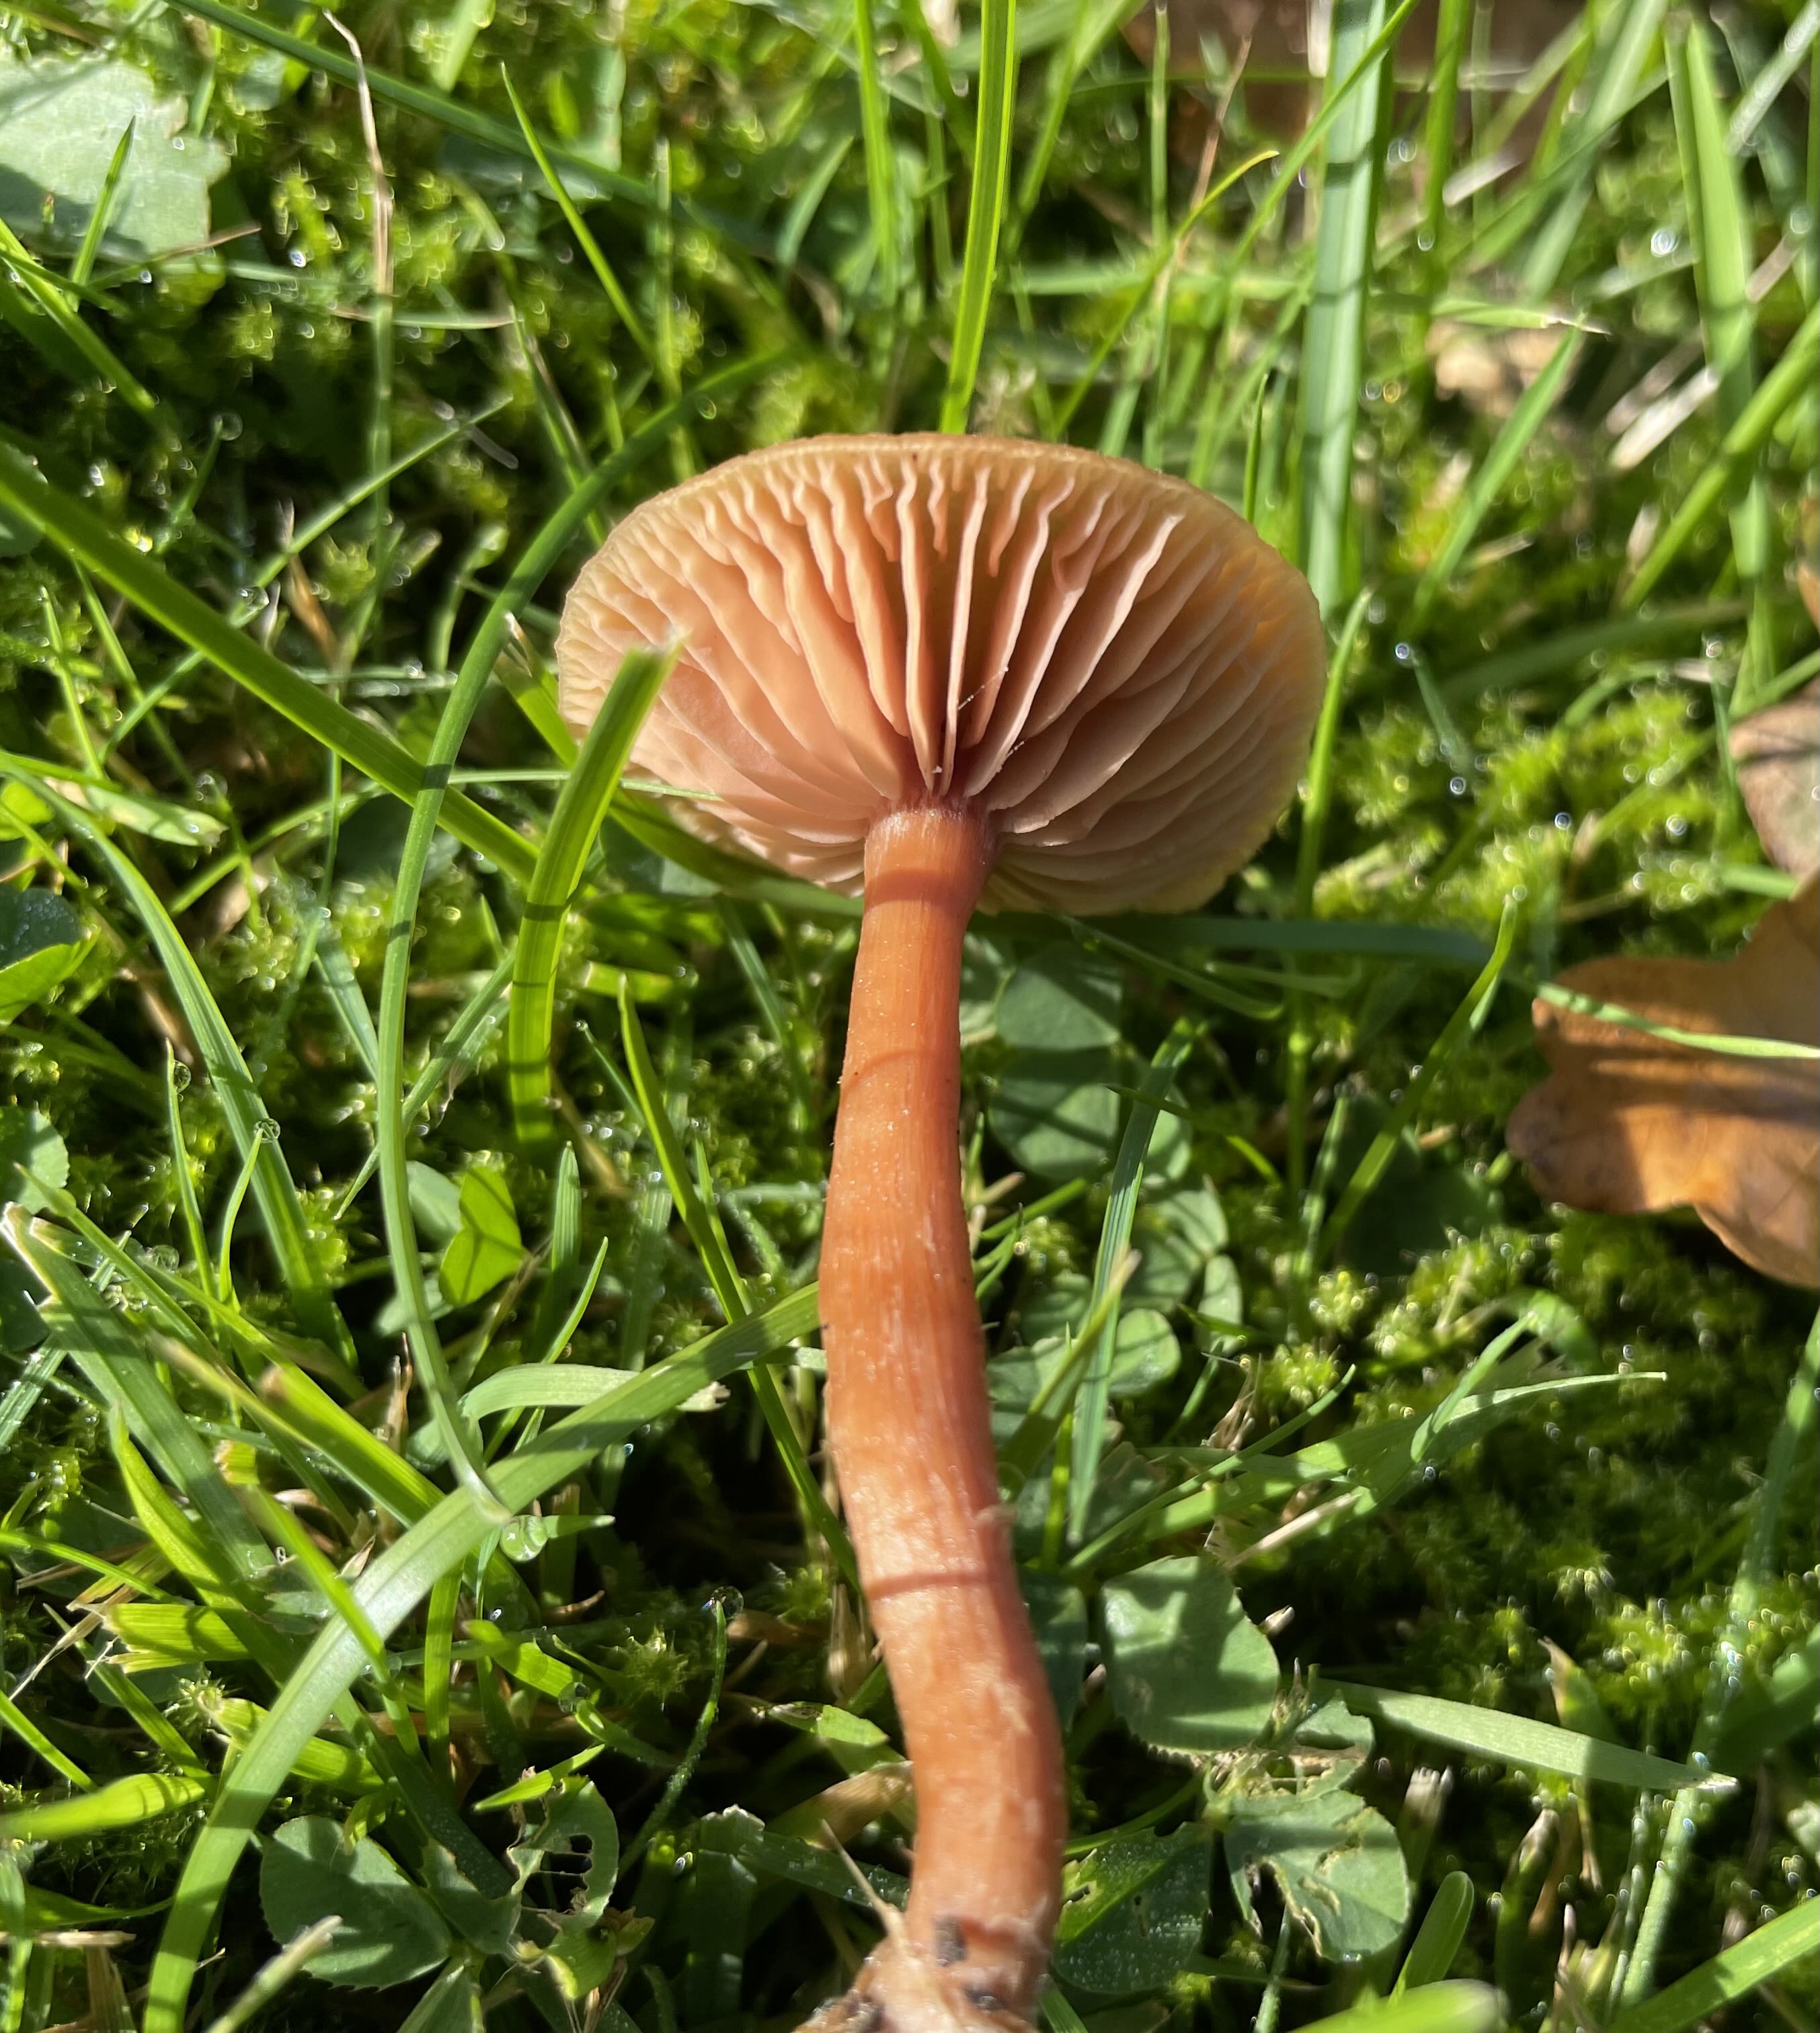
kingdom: Fungi
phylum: Basidiomycota
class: Agaricomycetes
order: Agaricales
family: Hydnangiaceae
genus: Laccaria
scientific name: Laccaria laccata
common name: rød ametysthat
